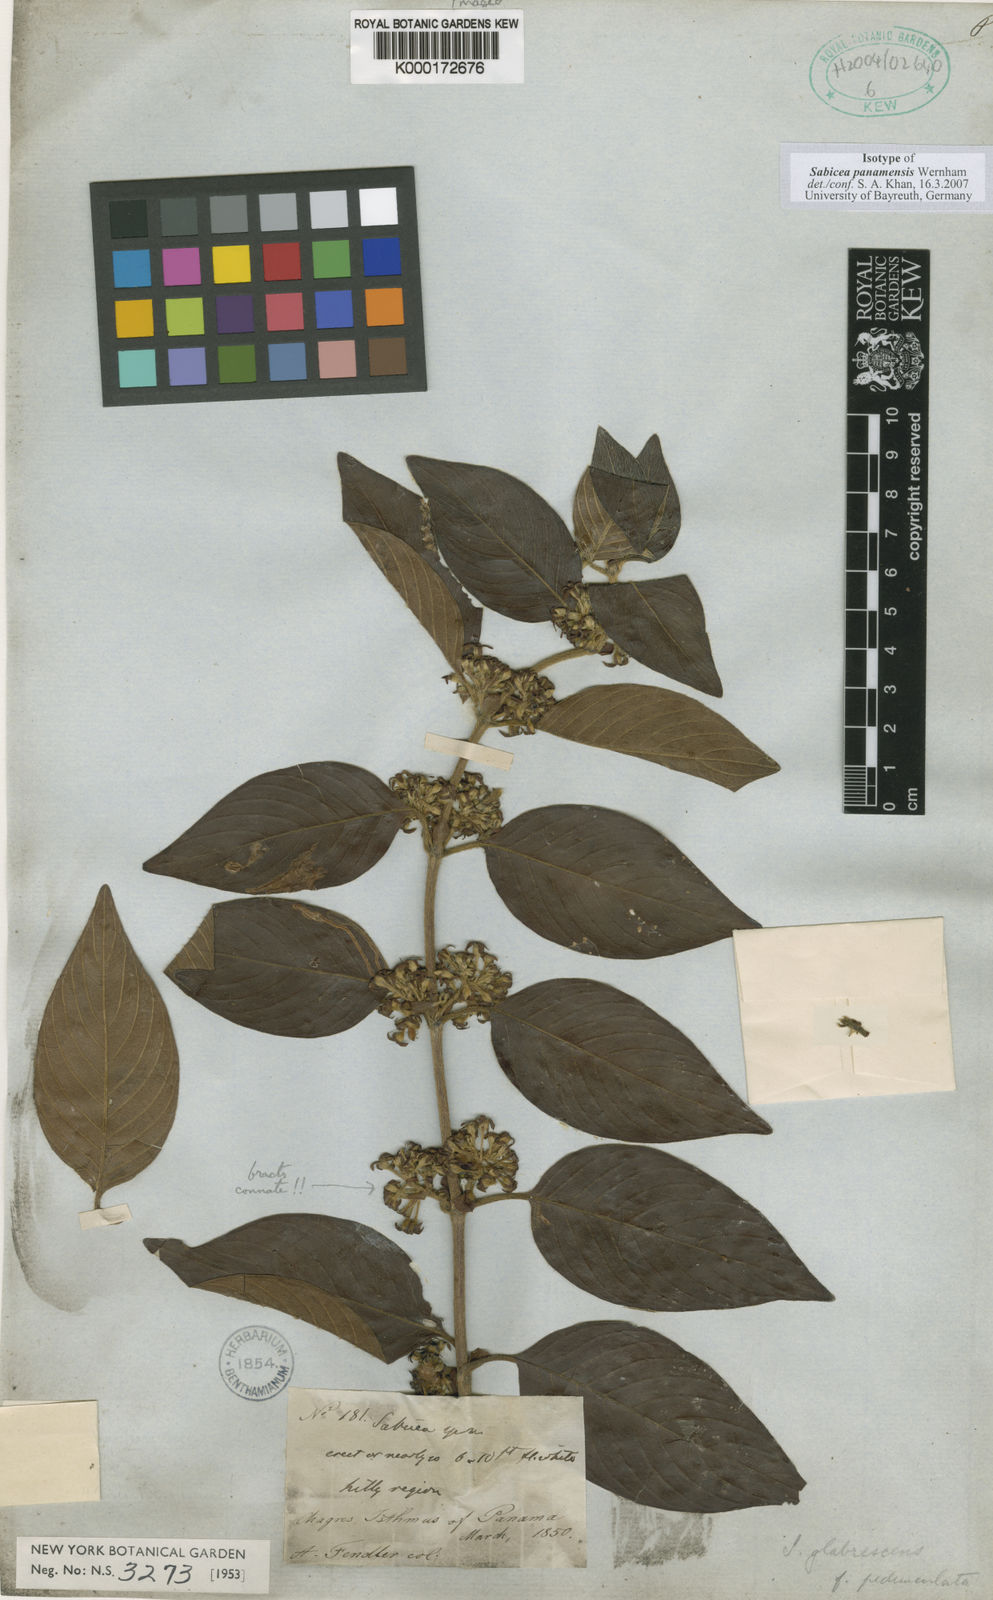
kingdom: Plantae
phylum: Tracheophyta
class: Magnoliopsida
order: Gentianales
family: Rubiaceae
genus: Sabicea
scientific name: Sabicea panamensis
